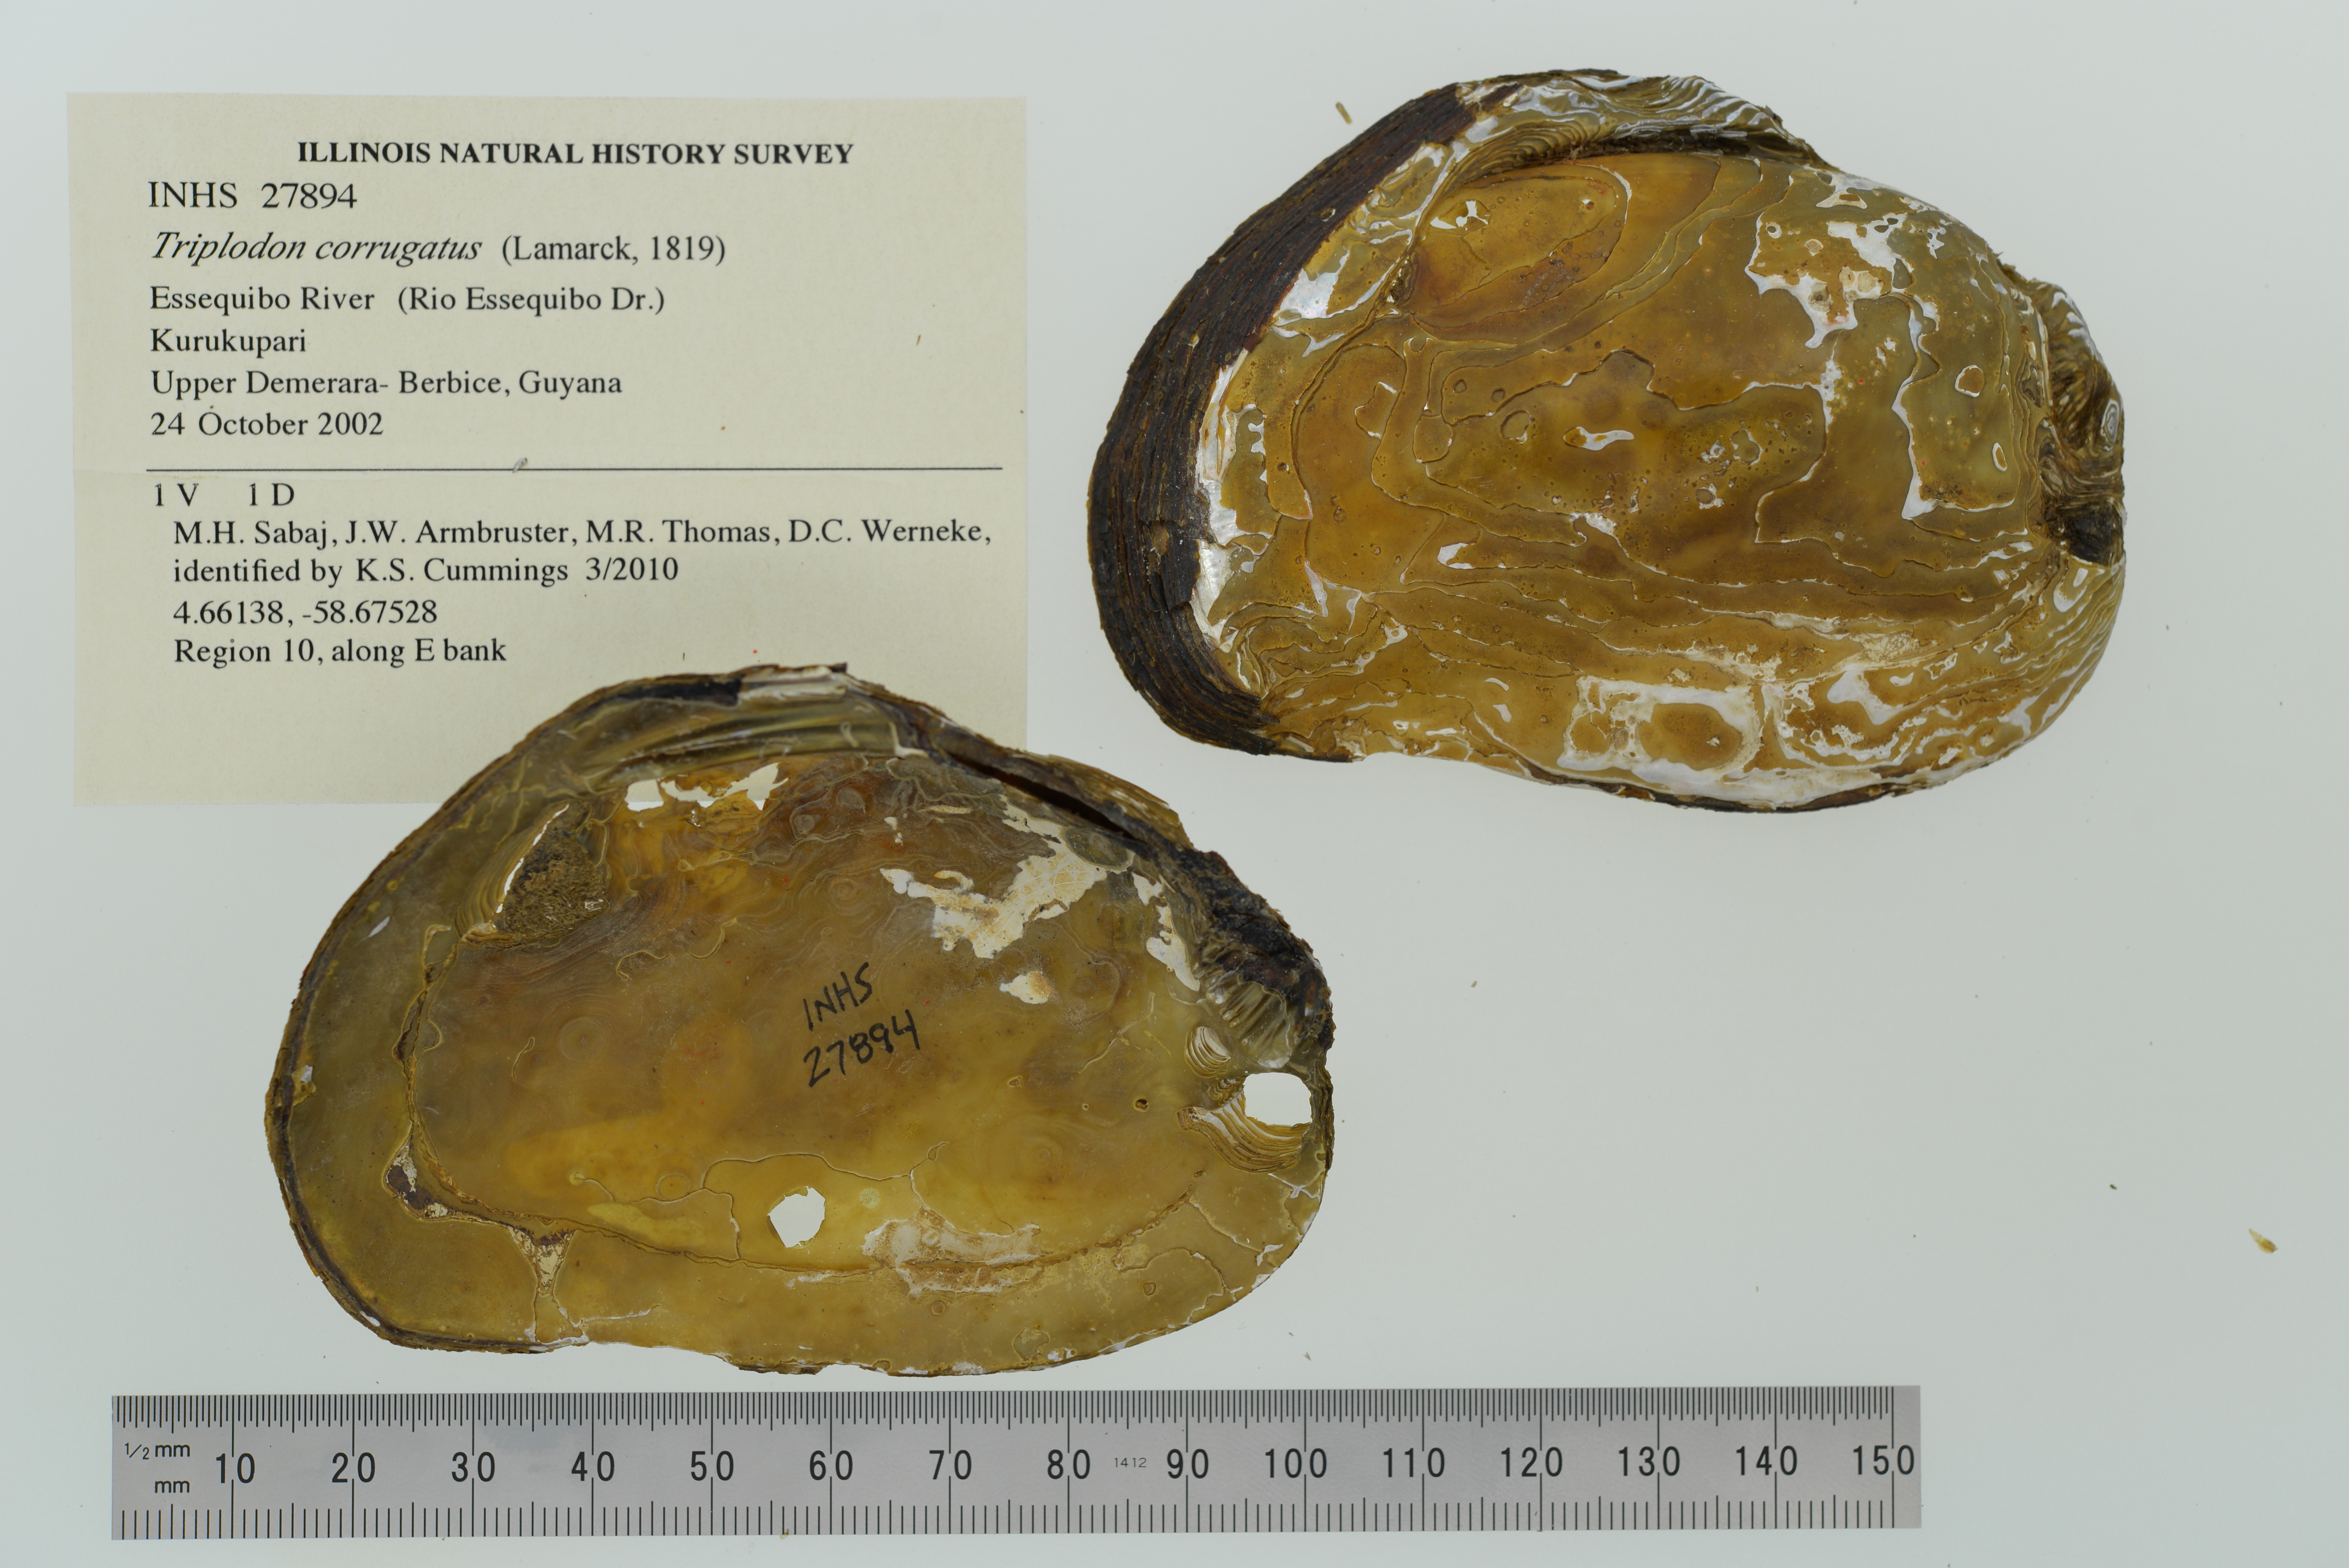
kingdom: Animalia
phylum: Mollusca
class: Bivalvia
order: Unionida
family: Hyriidae
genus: Triplodon
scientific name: Triplodon corrugatus
